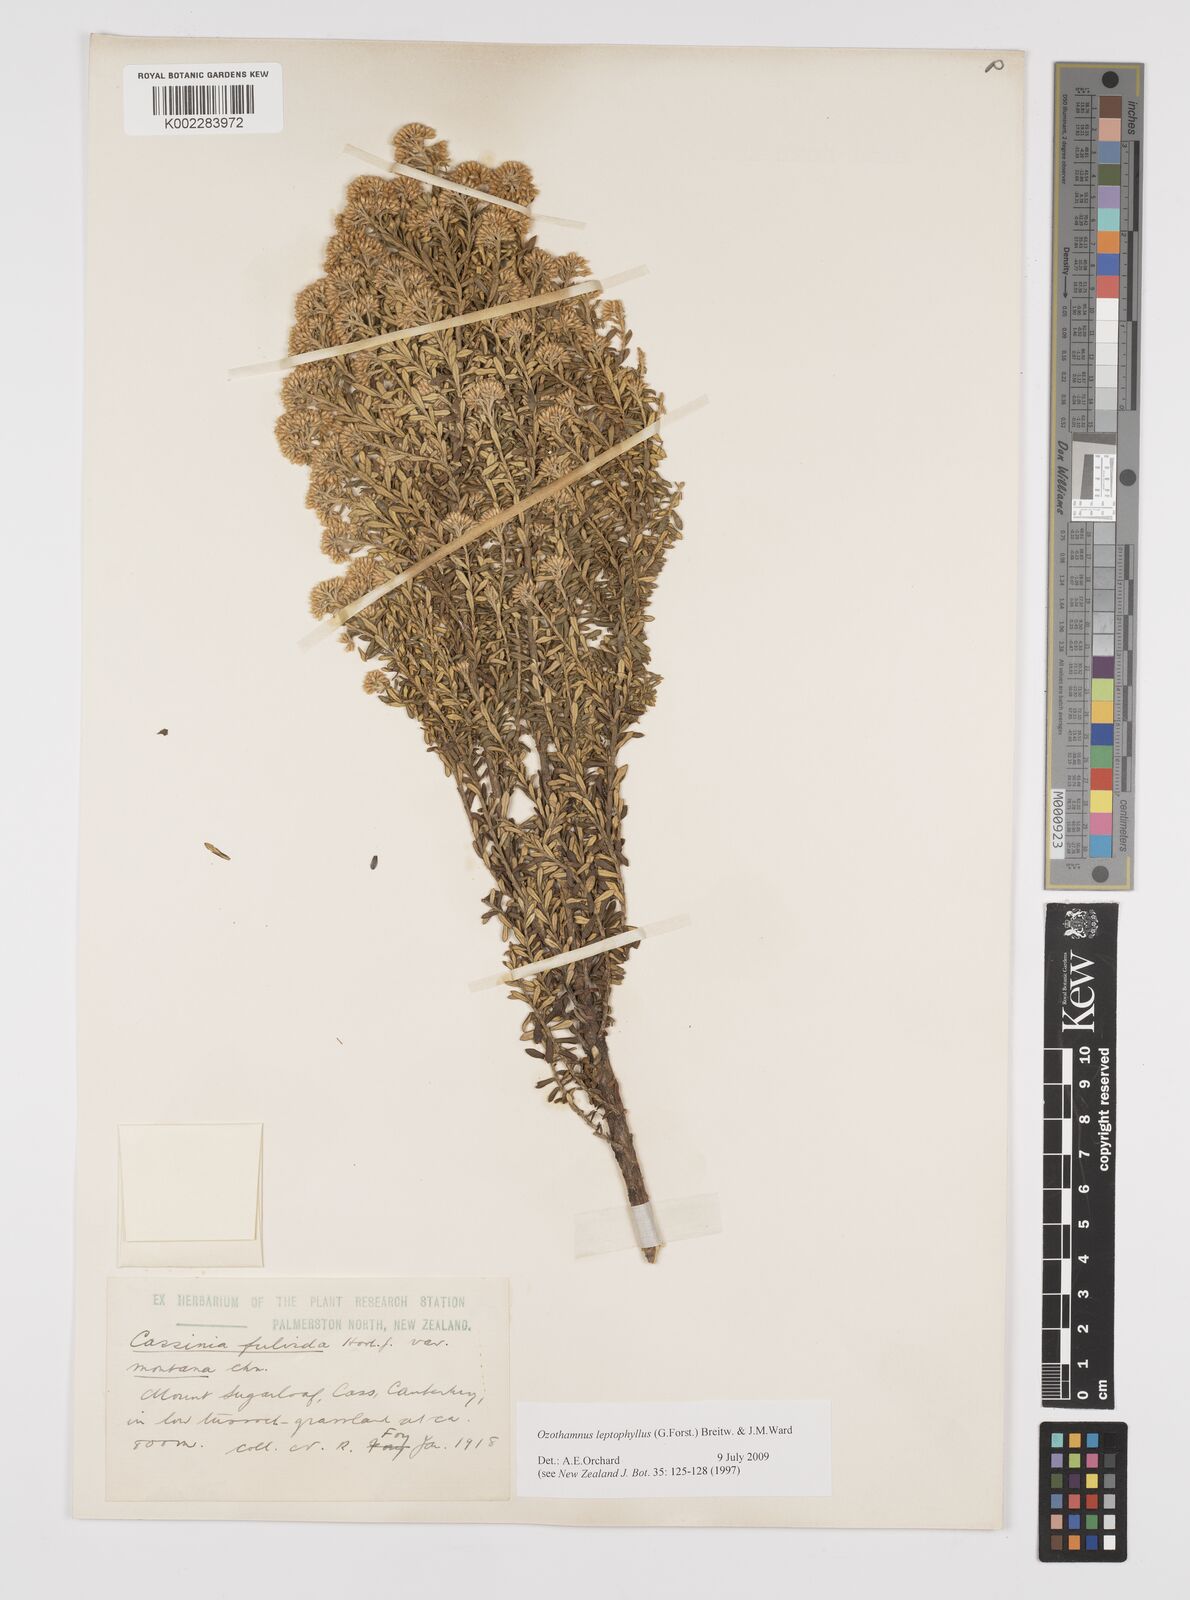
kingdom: Plantae
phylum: Tracheophyta
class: Magnoliopsida
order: Asterales
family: Asteraceae
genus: Ozothamnus
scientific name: Ozothamnus leptophyllus
